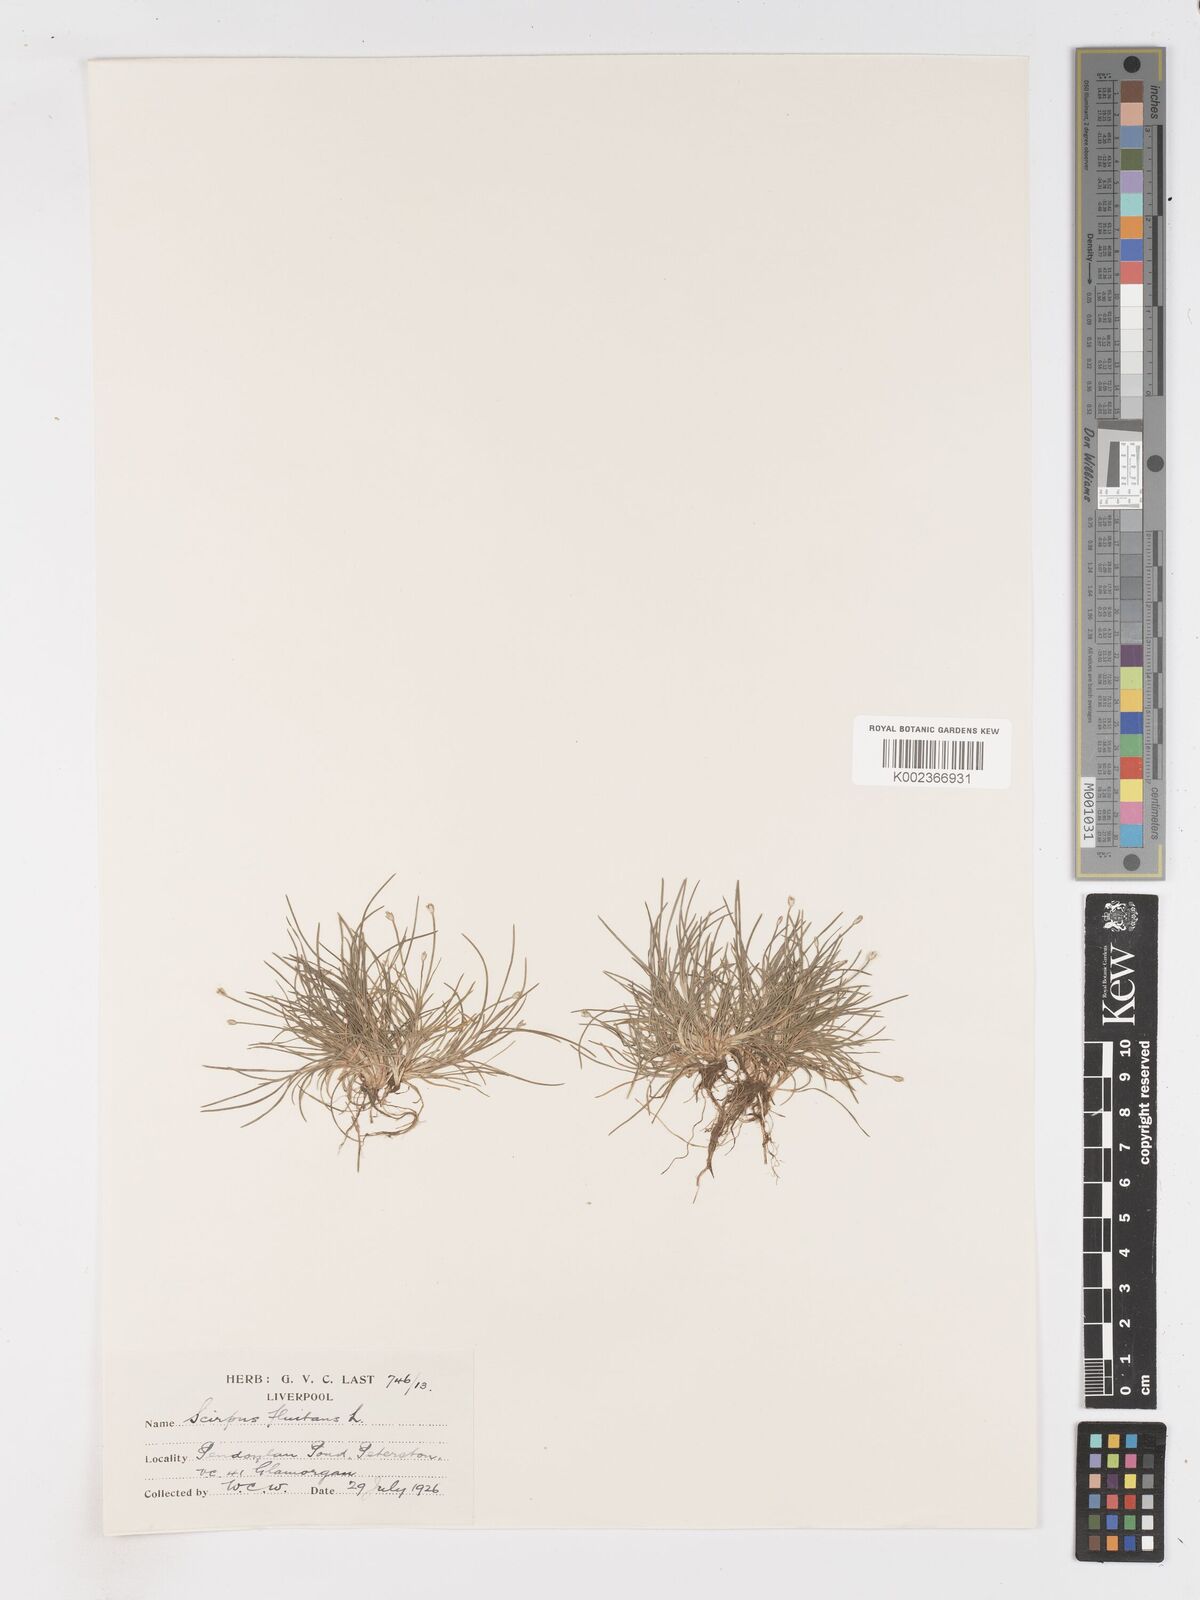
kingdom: Plantae
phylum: Tracheophyta
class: Liliopsida
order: Poales
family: Cyperaceae
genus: Isolepis
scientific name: Isolepis fluitans
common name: Floating club-rush
